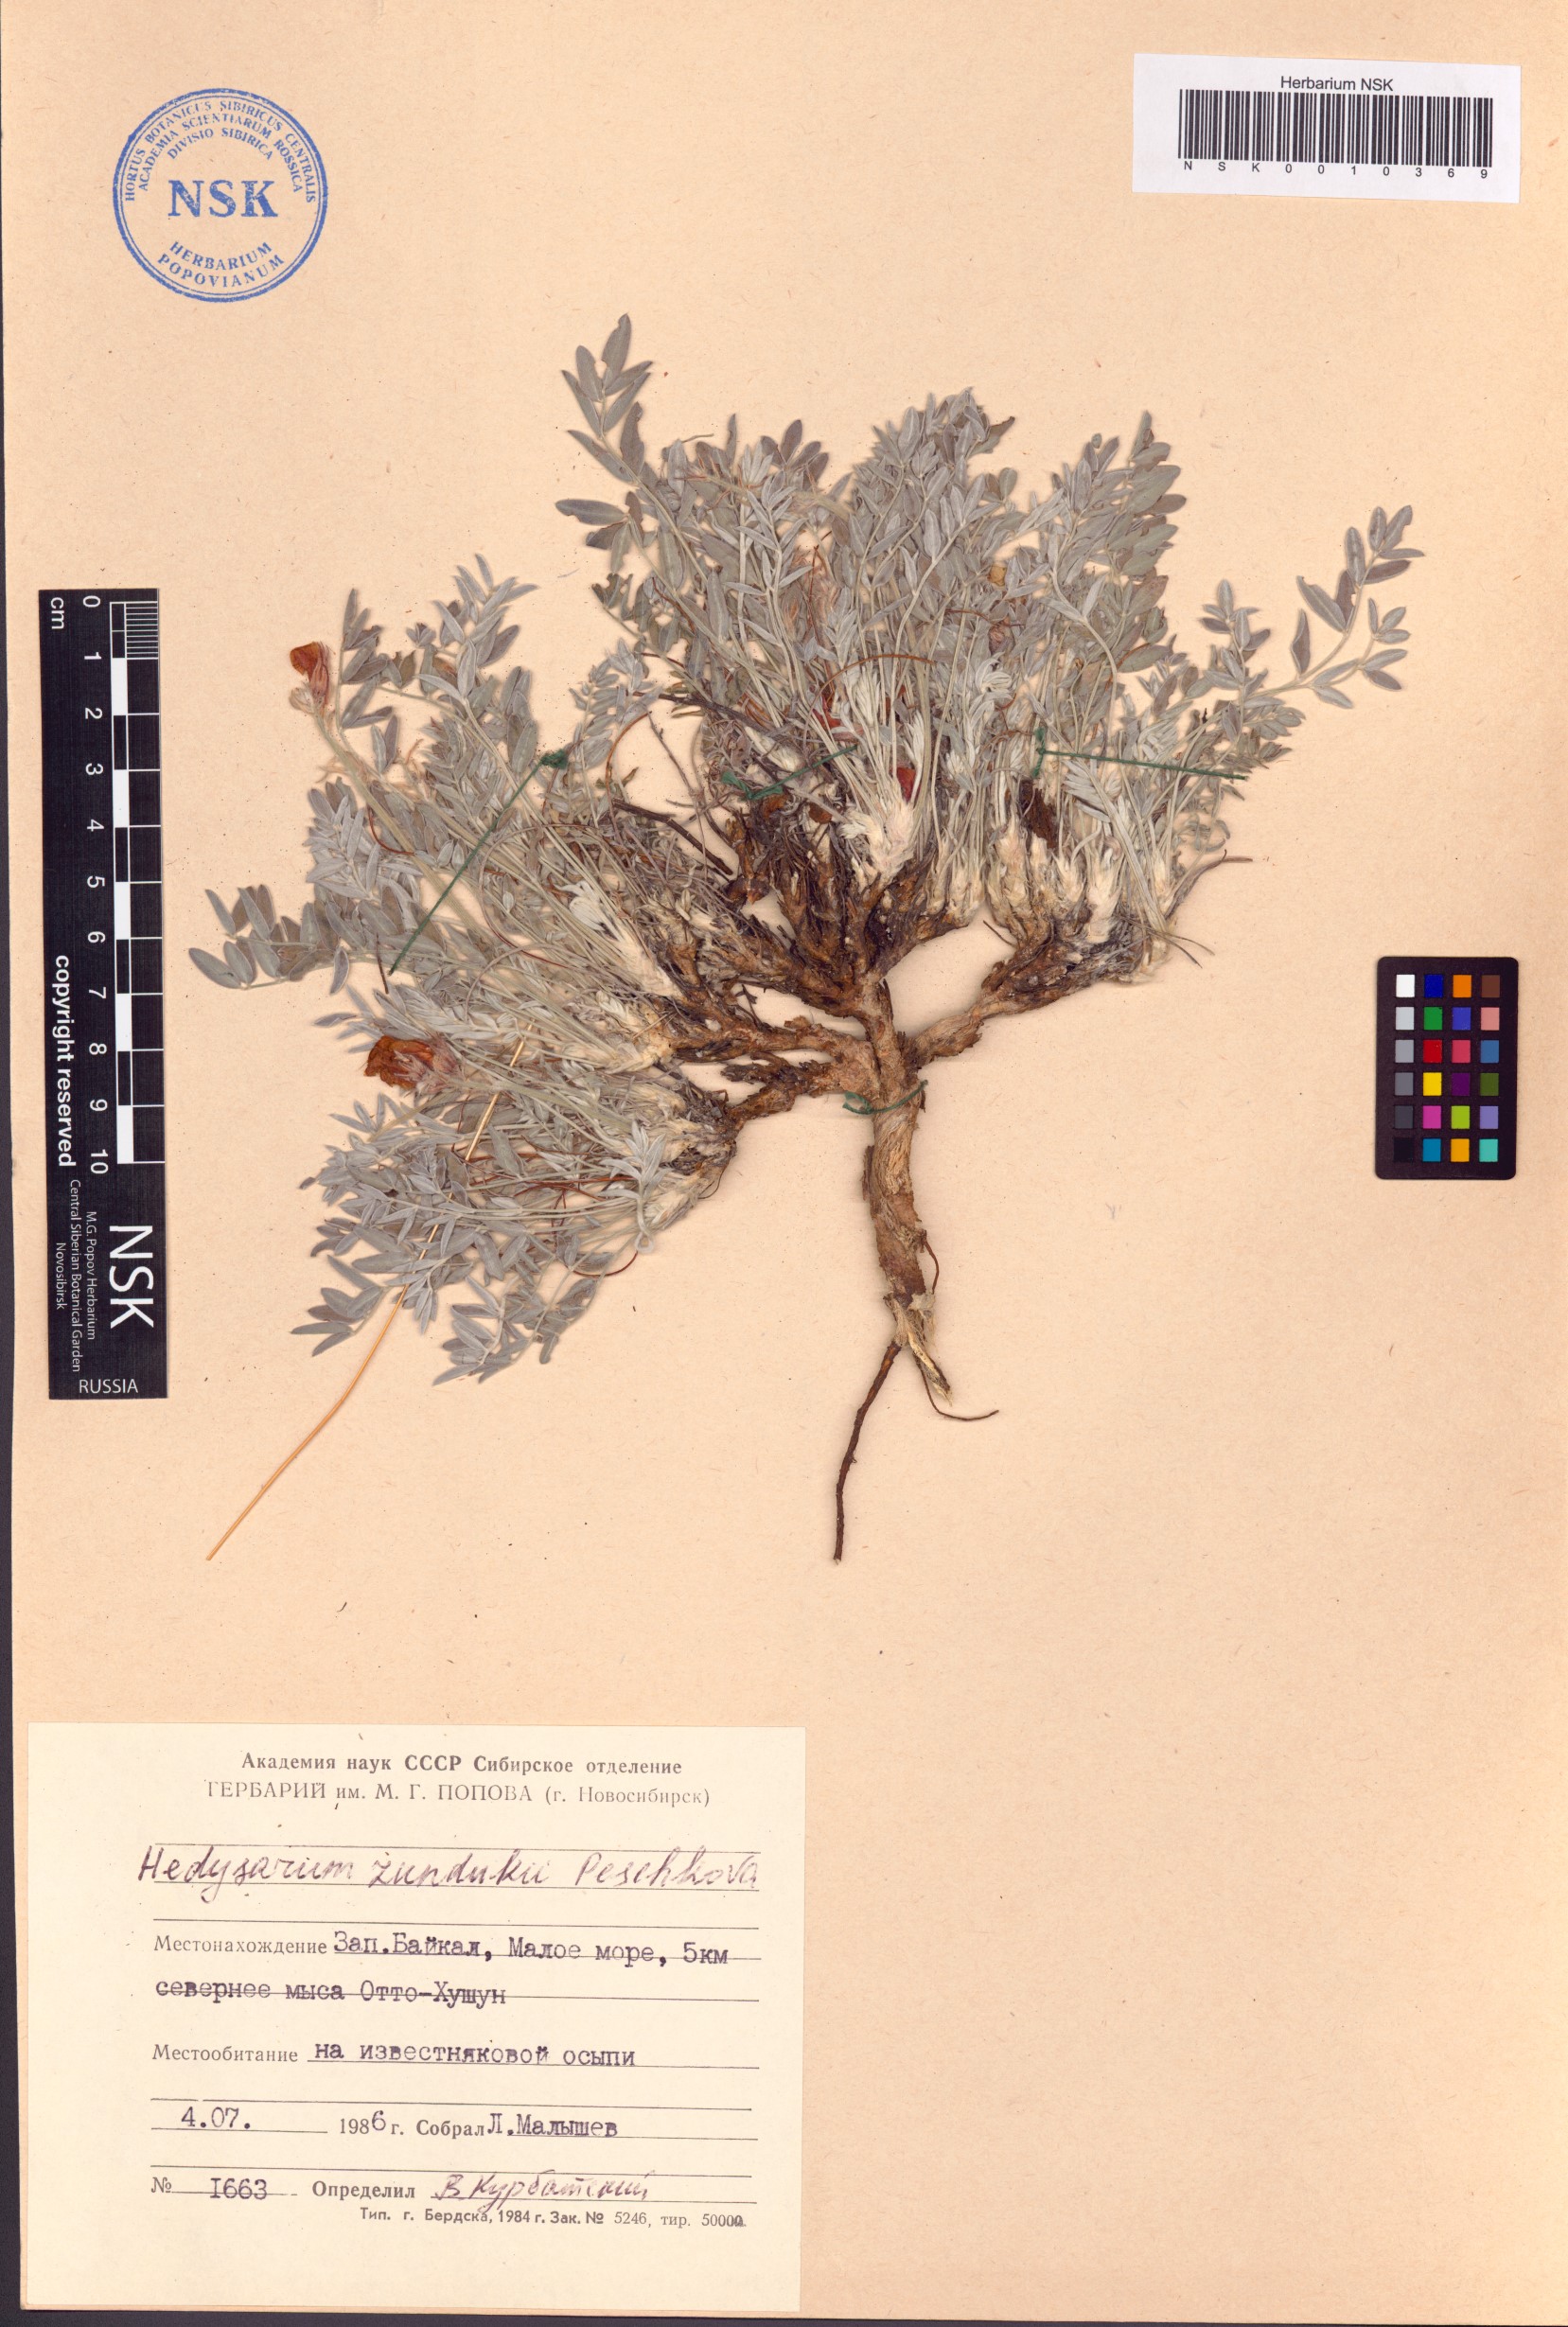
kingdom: Plantae
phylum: Tracheophyta
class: Magnoliopsida
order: Fabales
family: Fabaceae
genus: Hedysarum
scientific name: Hedysarum zundukii
